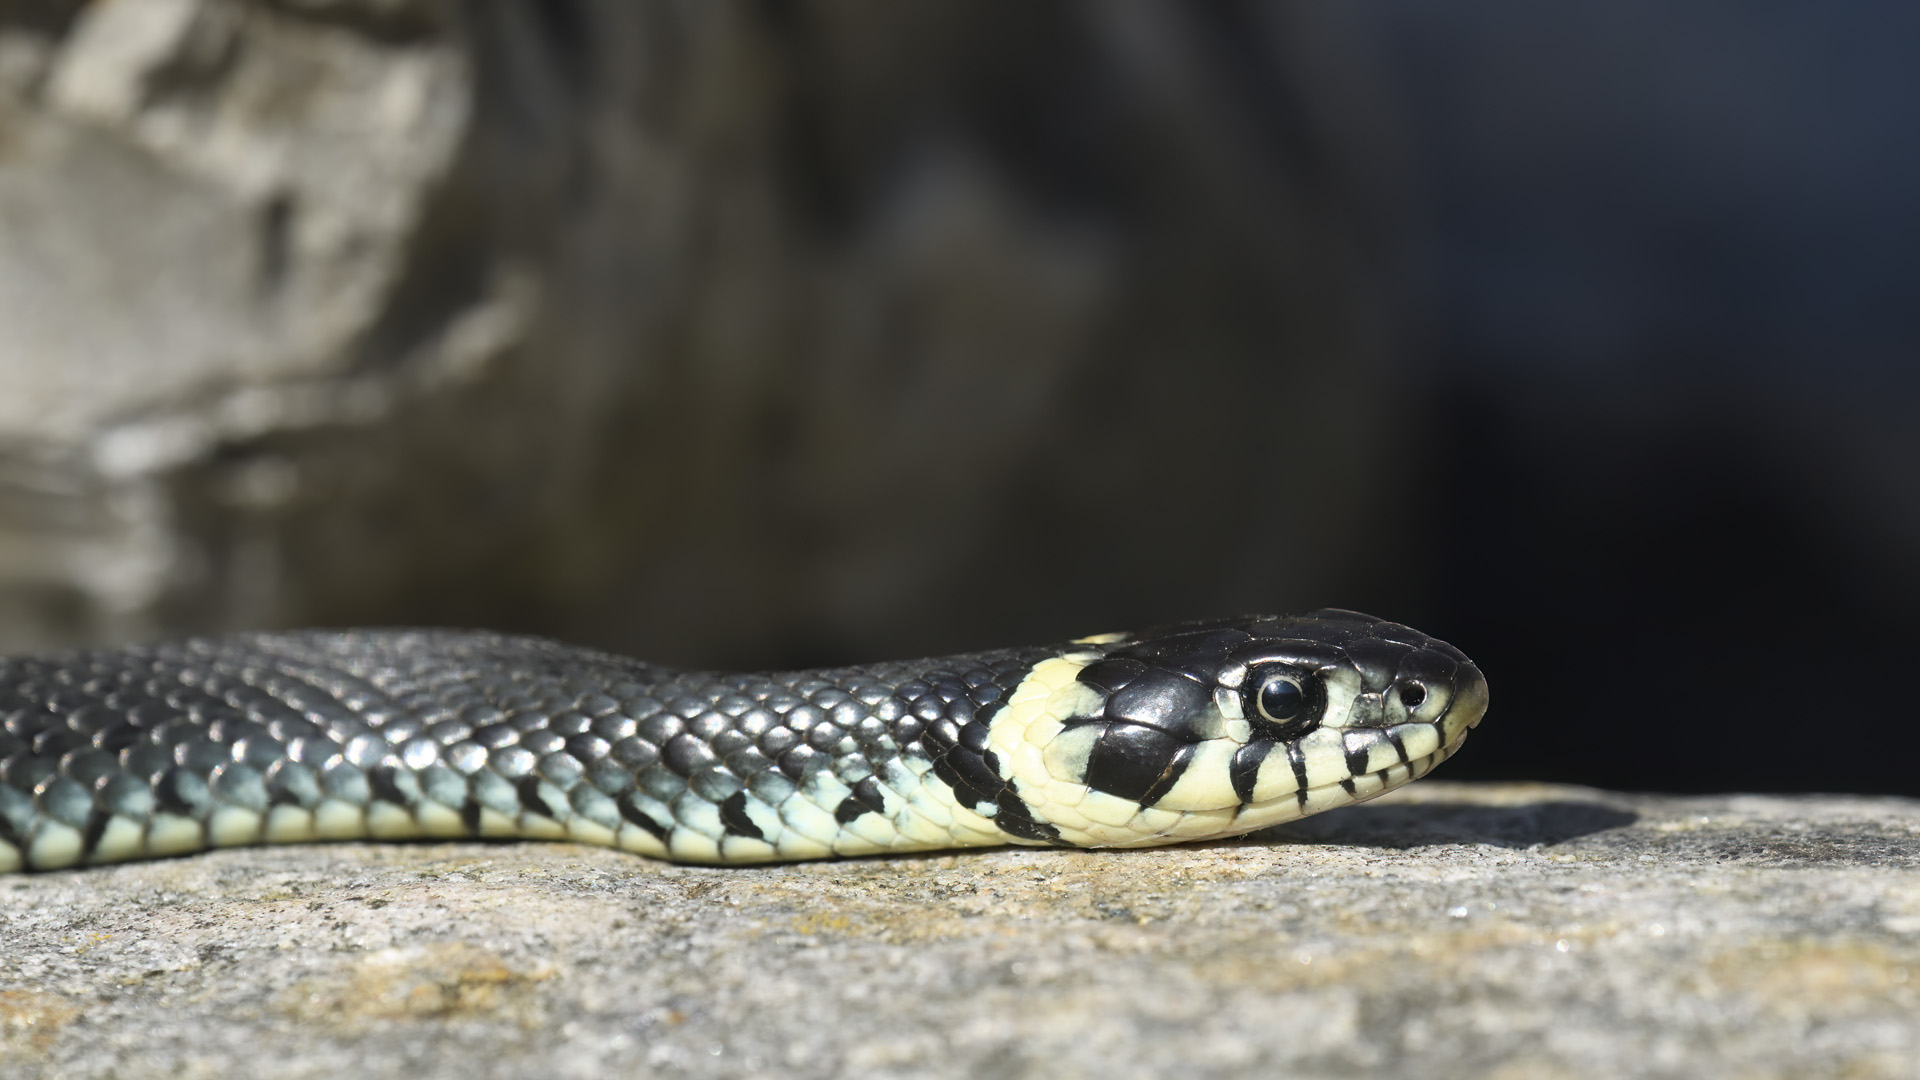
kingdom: Animalia
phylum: Chordata
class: Squamata
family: Colubridae
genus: Natrix
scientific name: Natrix natrix
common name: Snog
